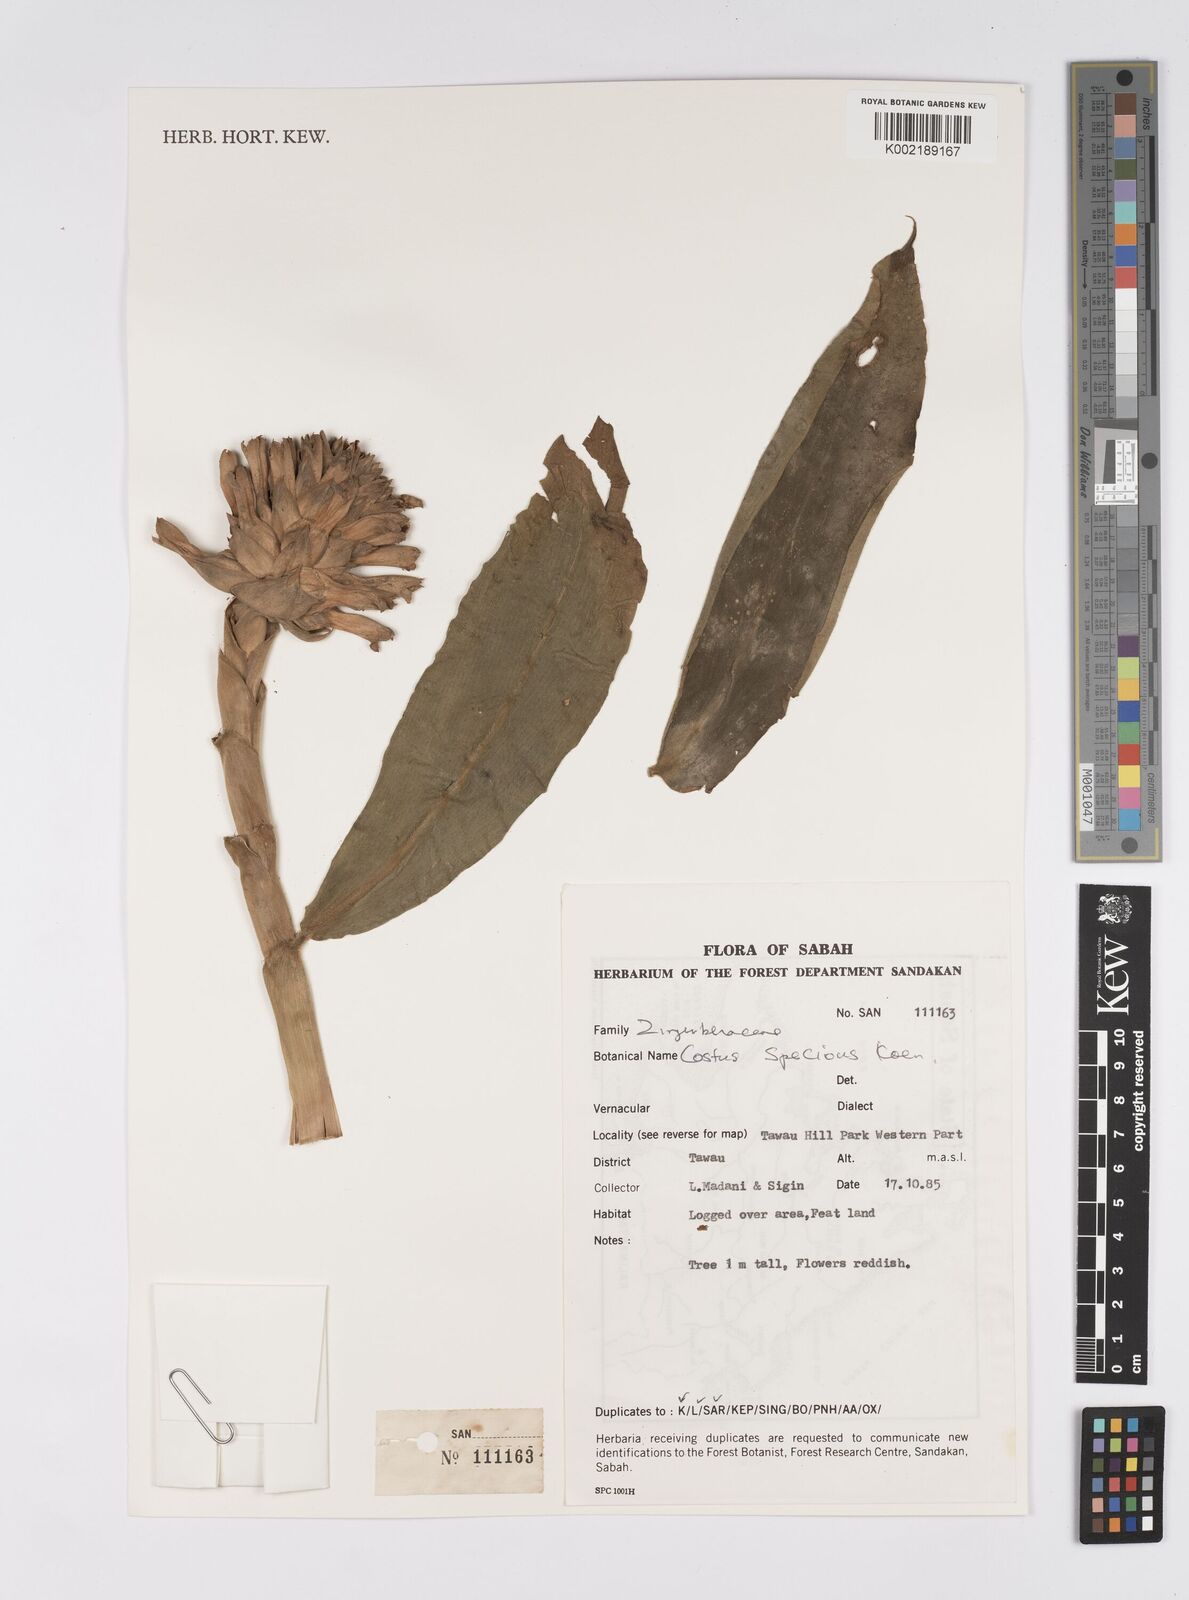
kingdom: Plantae
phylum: Tracheophyta
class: Liliopsida
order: Zingiberales
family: Costaceae
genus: Hellenia
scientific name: Hellenia speciosa
